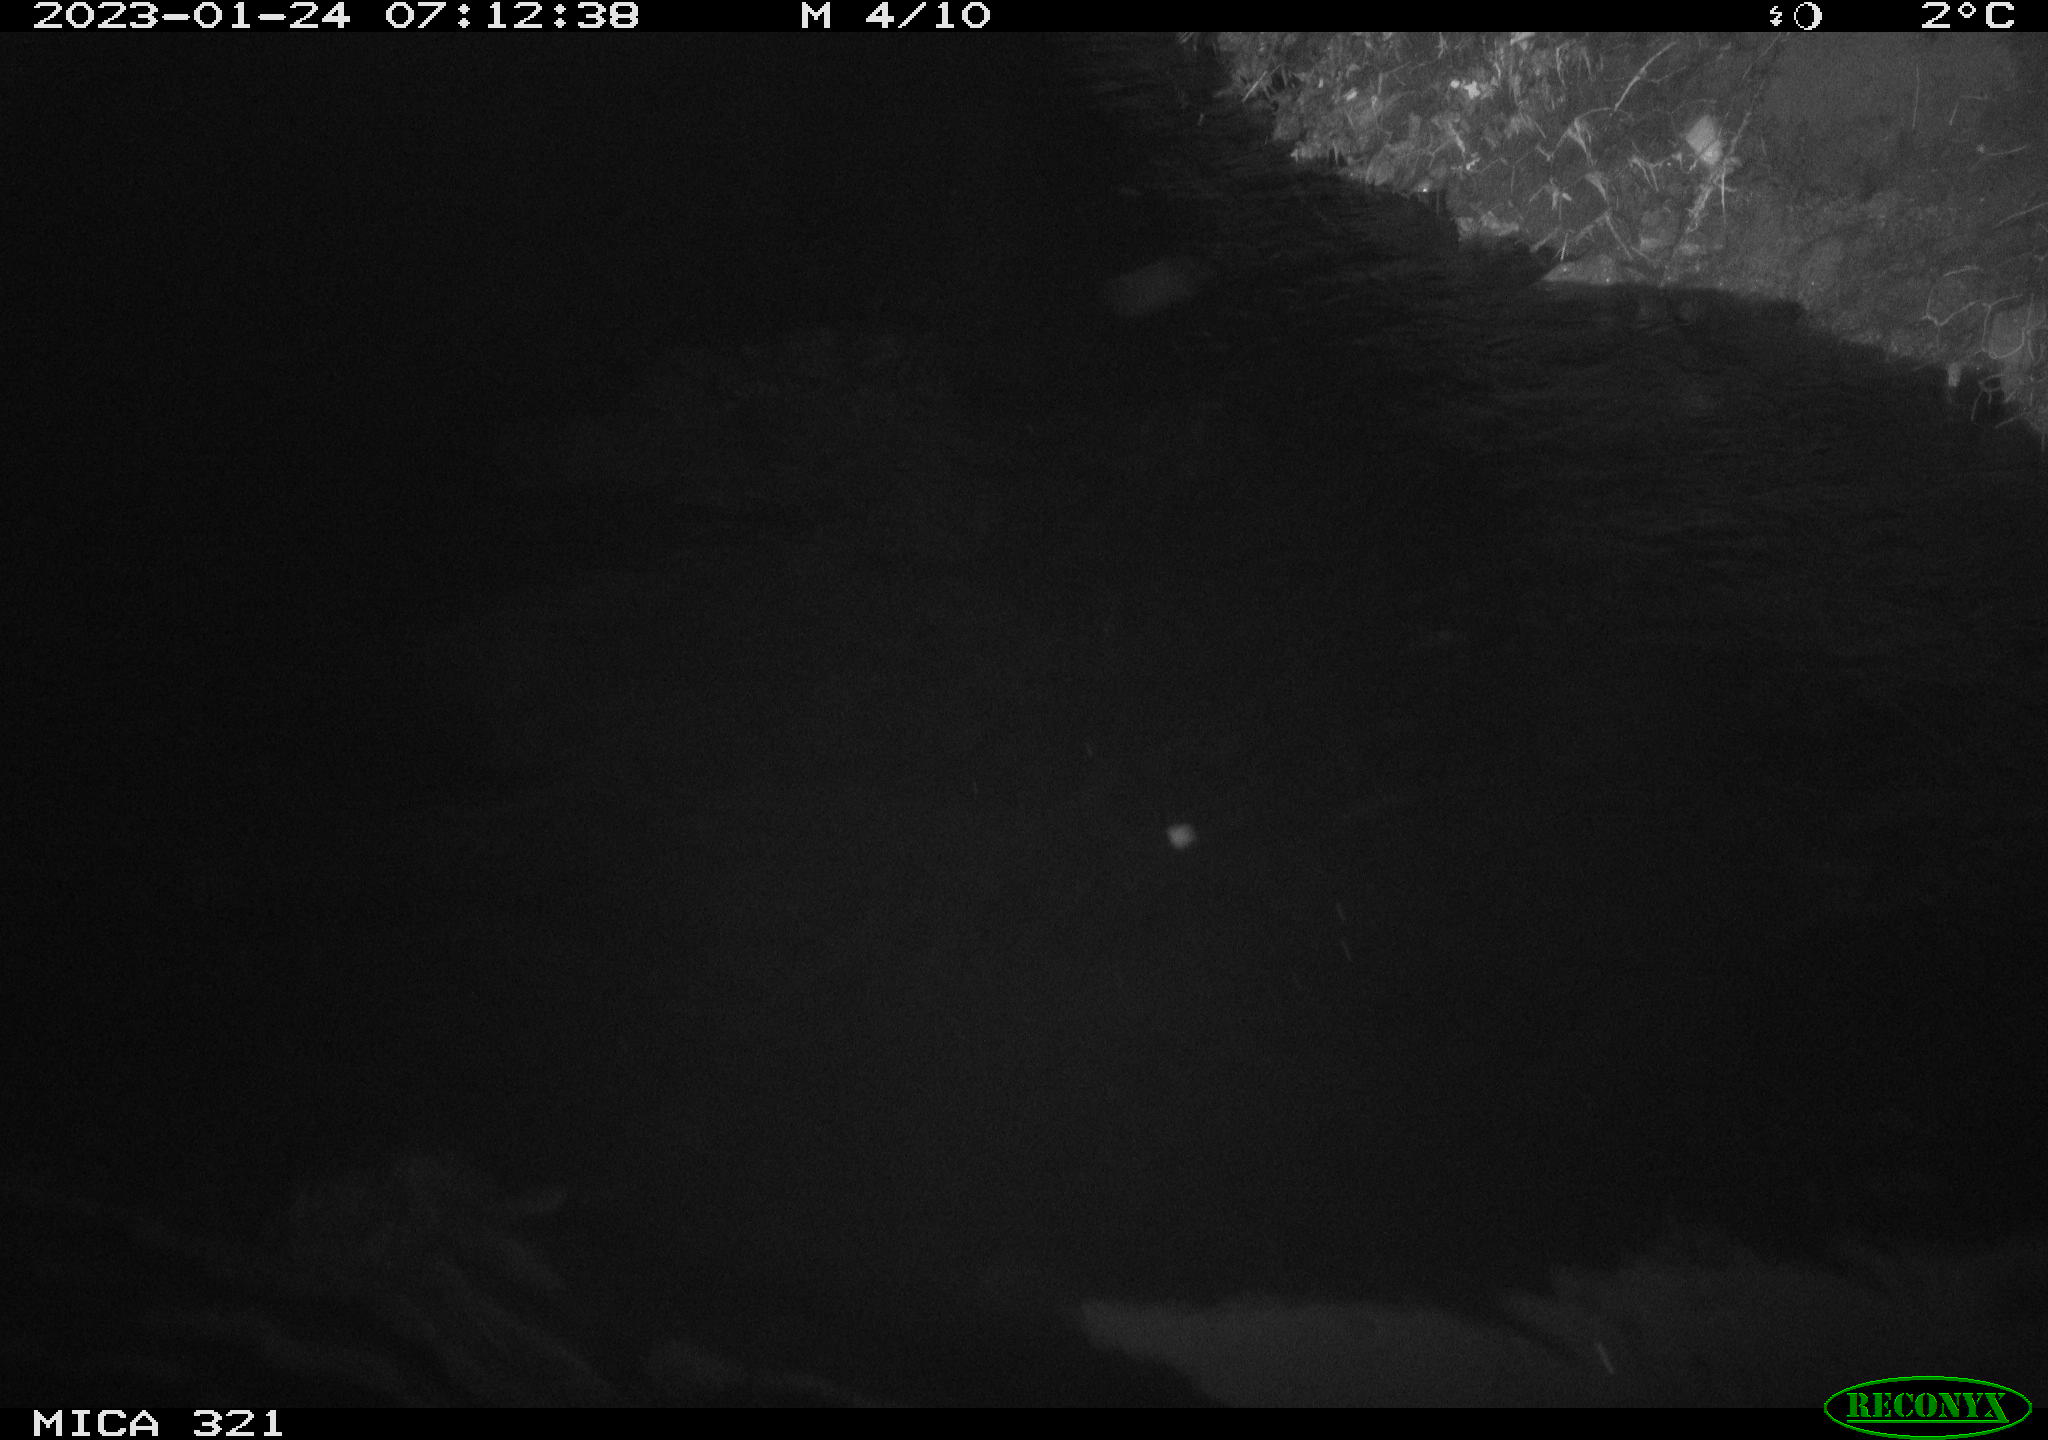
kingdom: Animalia
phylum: Chordata
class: Aves
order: Anseriformes
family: Anatidae
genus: Anas
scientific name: Anas
